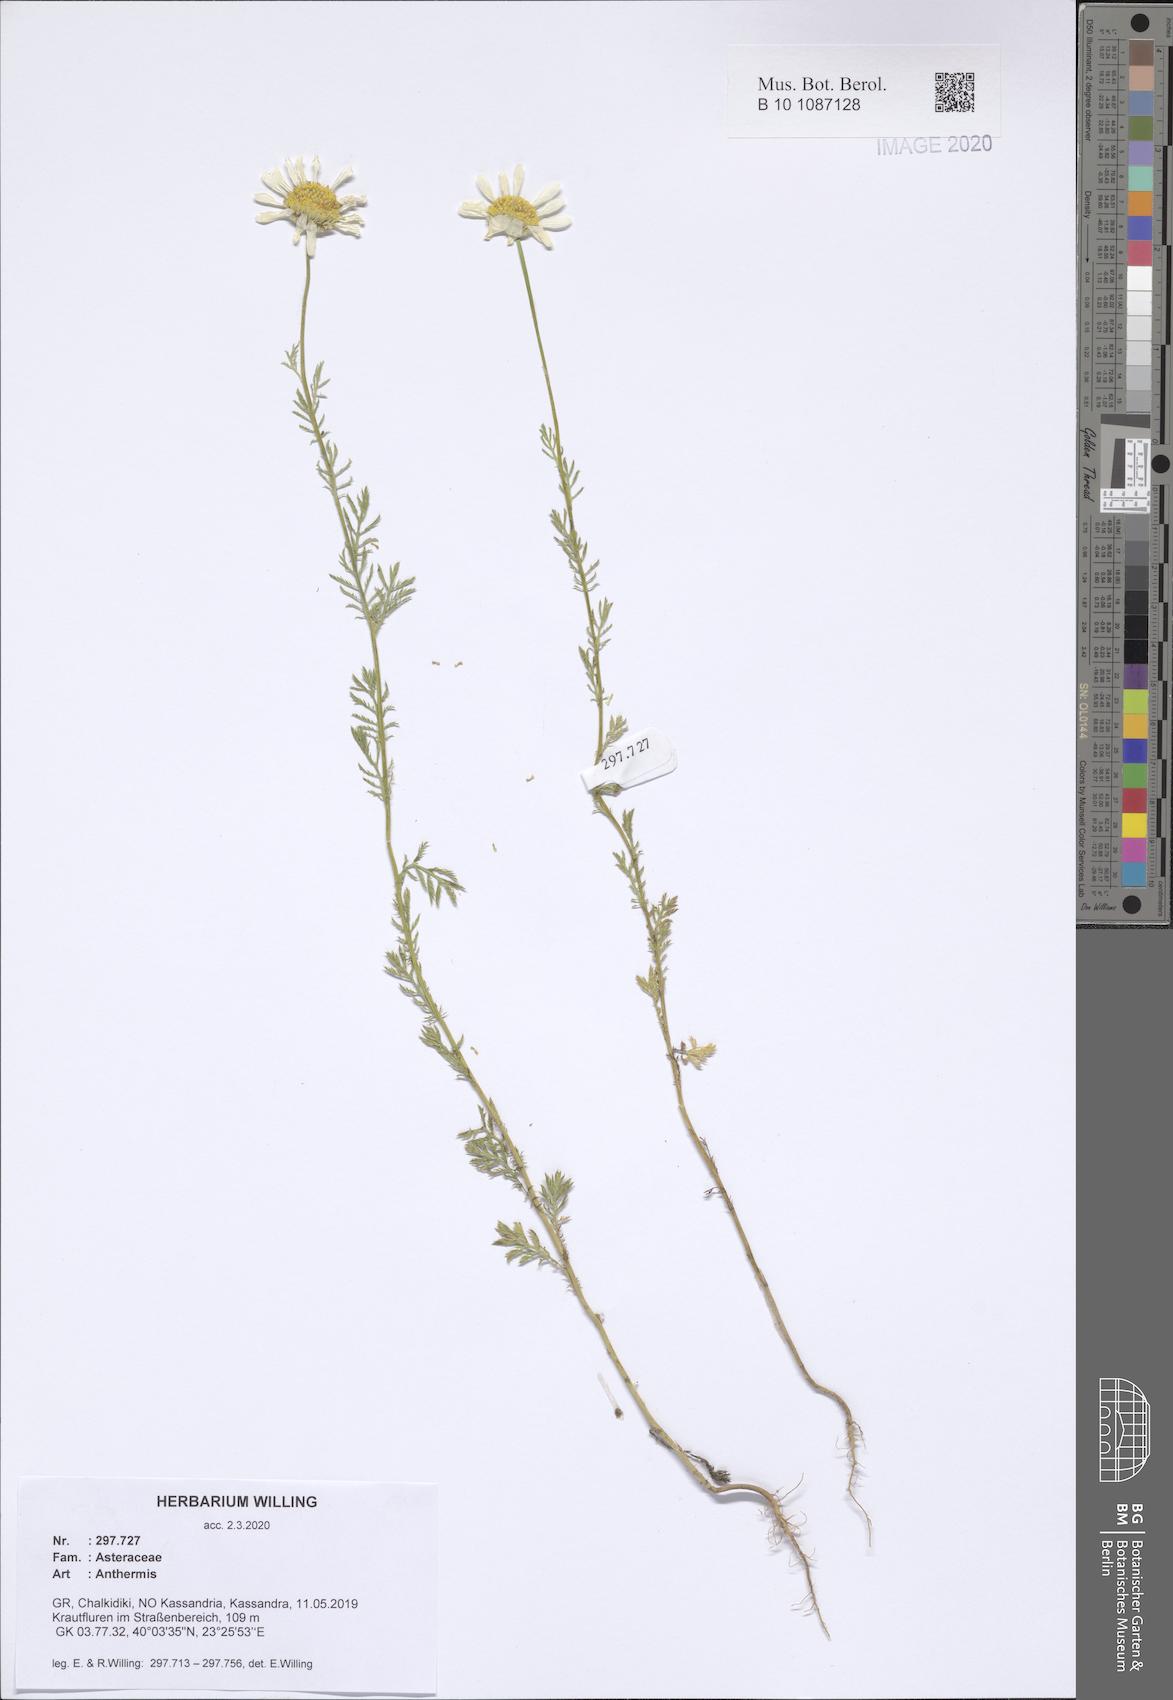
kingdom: Plantae
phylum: Tracheophyta
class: Magnoliopsida
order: Asterales
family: Asteraceae
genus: Anthemis
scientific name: Anthemis
